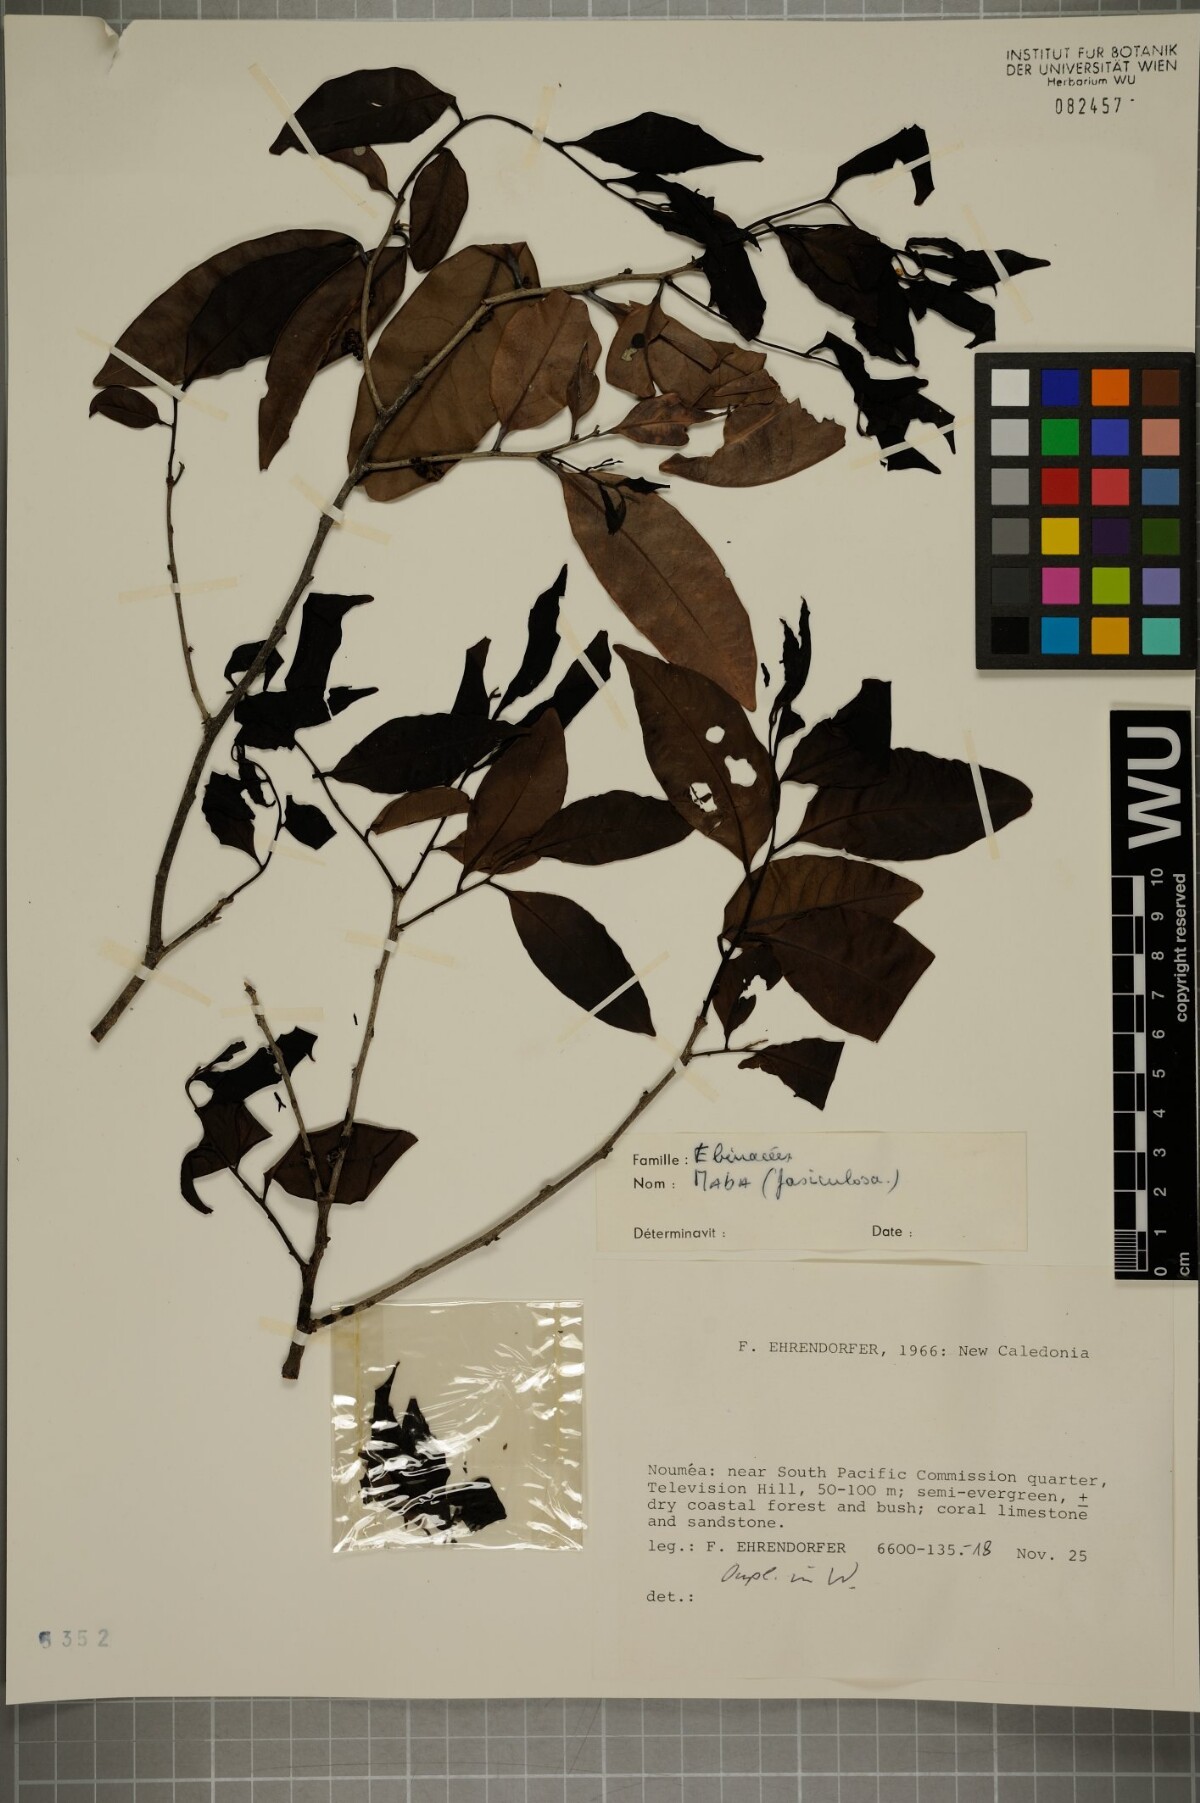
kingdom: Plantae
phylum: Tracheophyta
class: Magnoliopsida
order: Ericales
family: Ebenaceae
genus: Diospyros
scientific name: Diospyros fasciculosa
